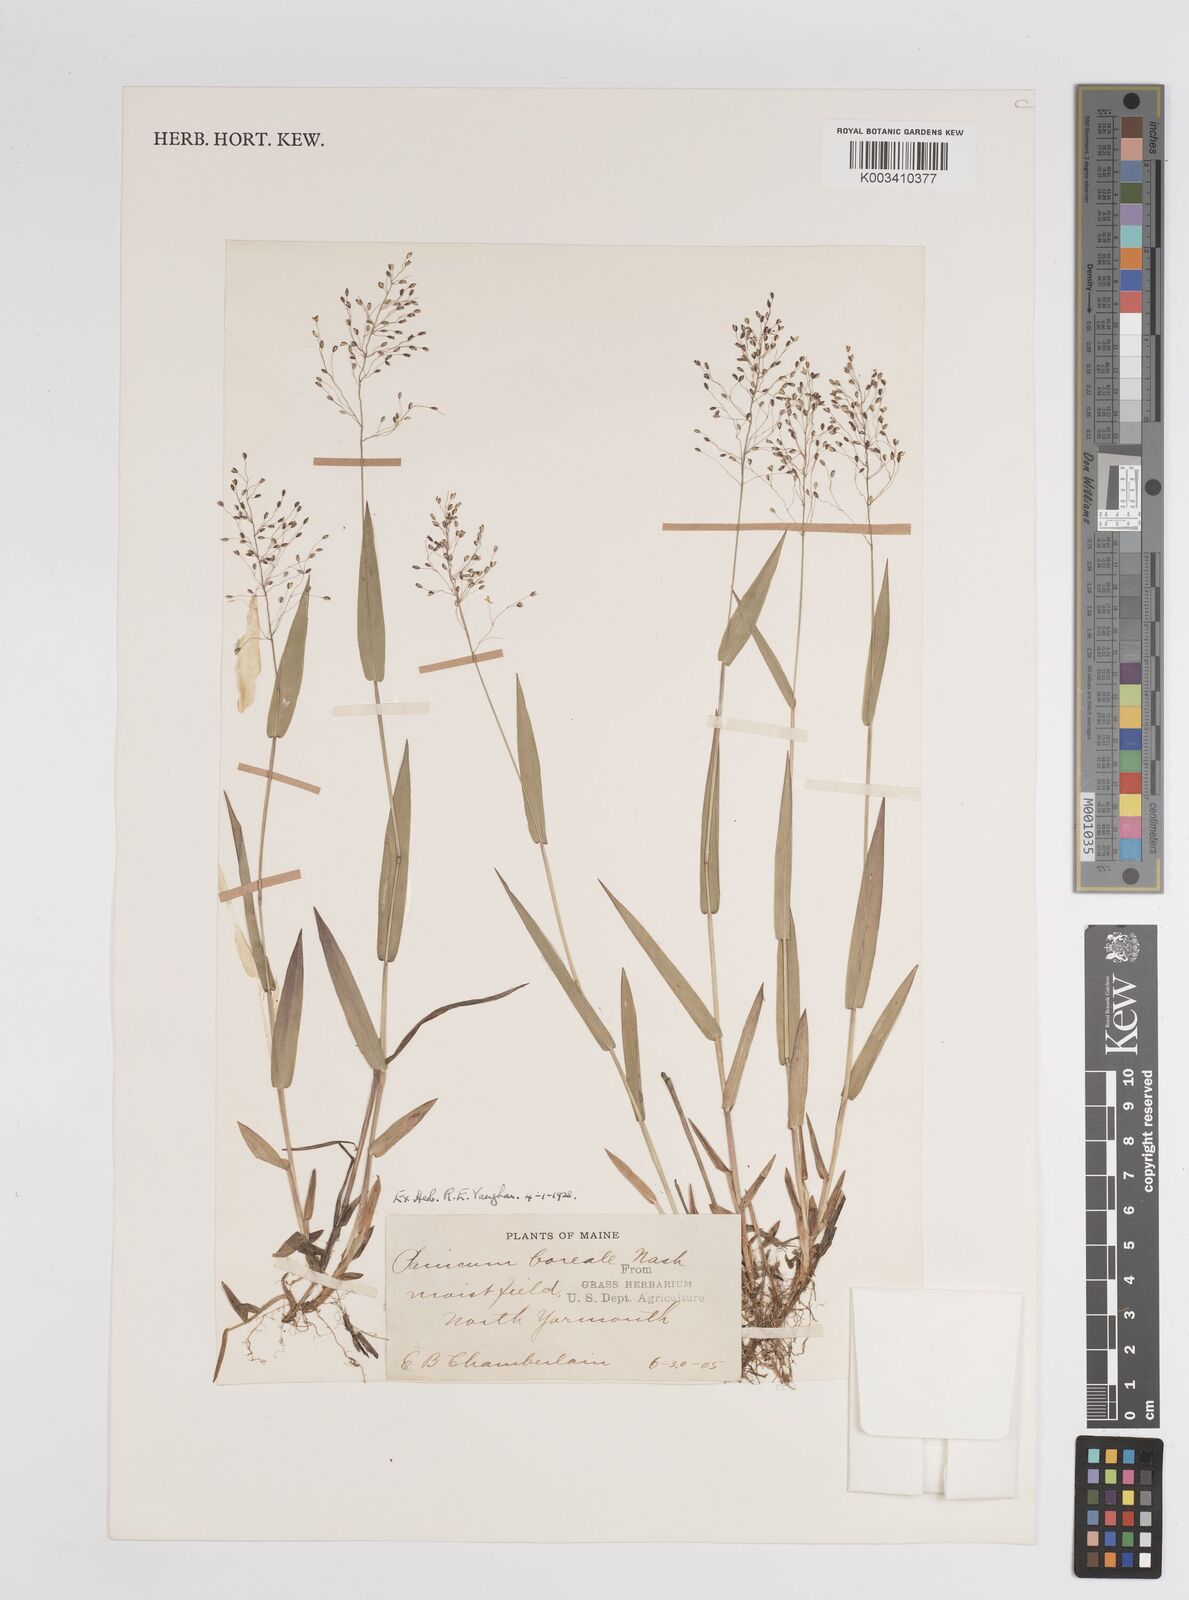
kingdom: Plantae
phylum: Tracheophyta
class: Liliopsida
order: Poales
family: Poaceae
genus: Dichanthelium
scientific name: Dichanthelium boreale
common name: Northern panicgrass
